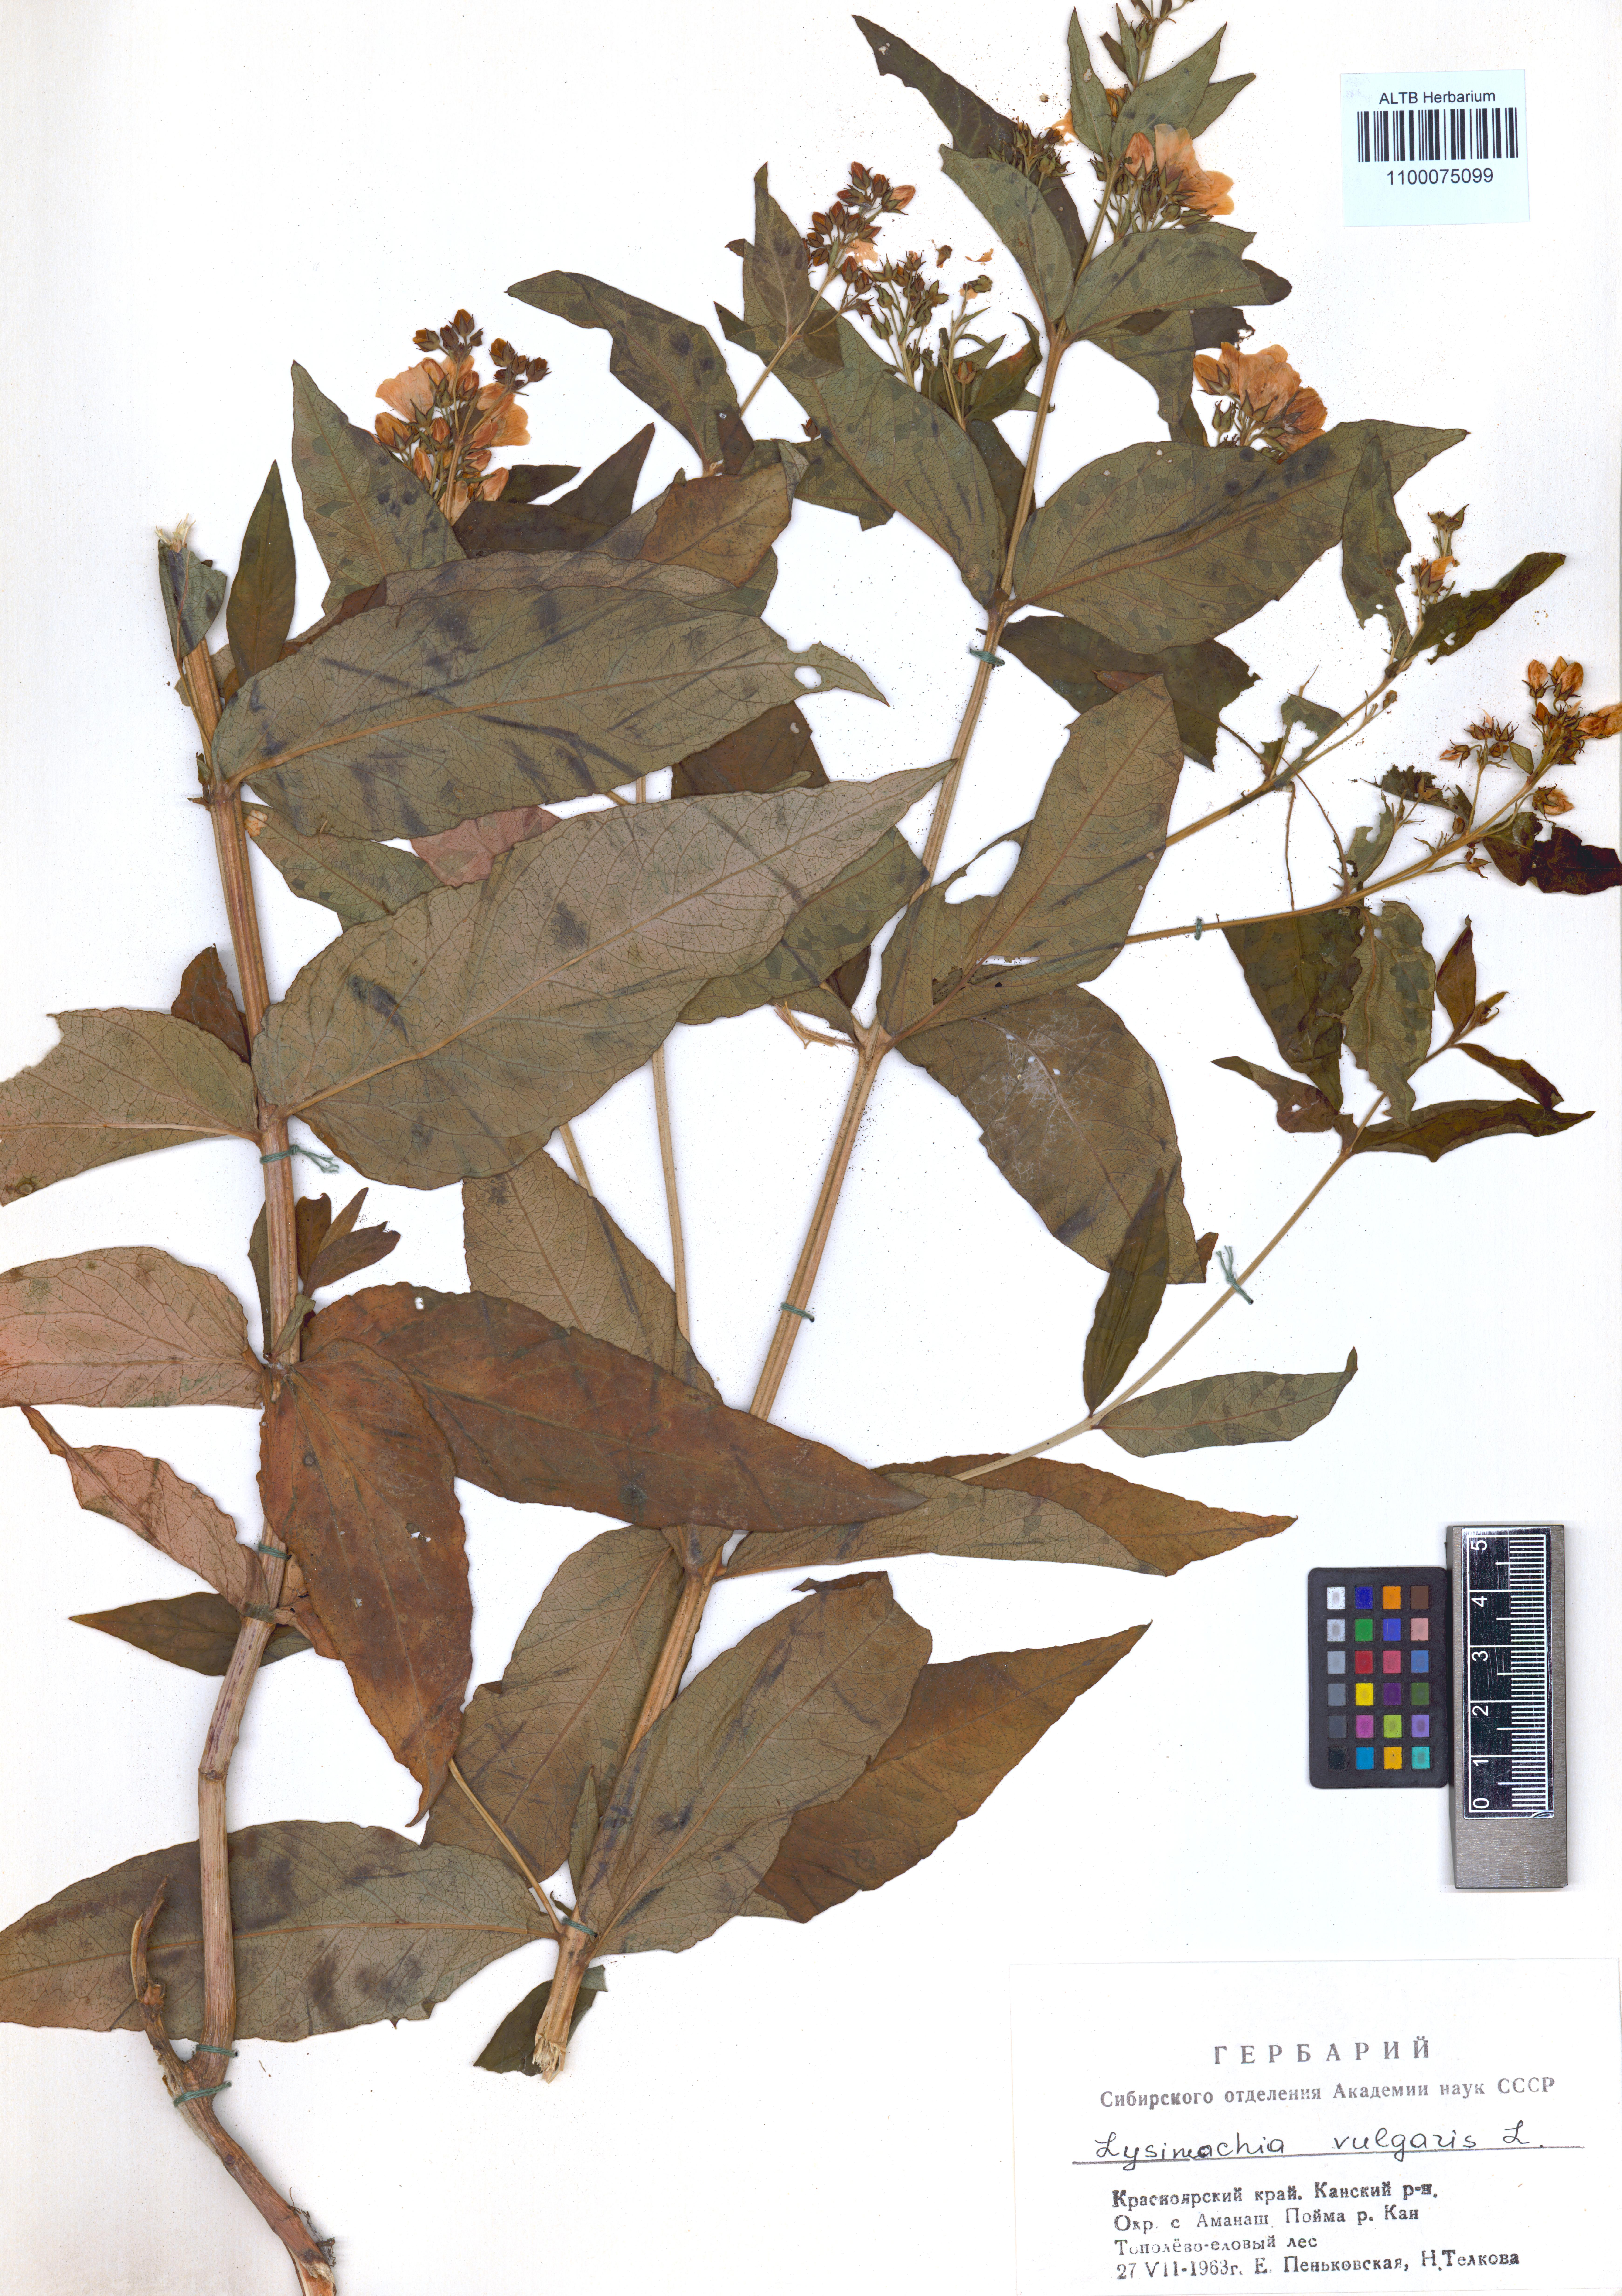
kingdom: Plantae
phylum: Tracheophyta
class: Magnoliopsida
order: Ericales
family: Primulaceae
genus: Lysimachia
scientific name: Lysimachia vulgaris
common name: Yellow loosestrife
